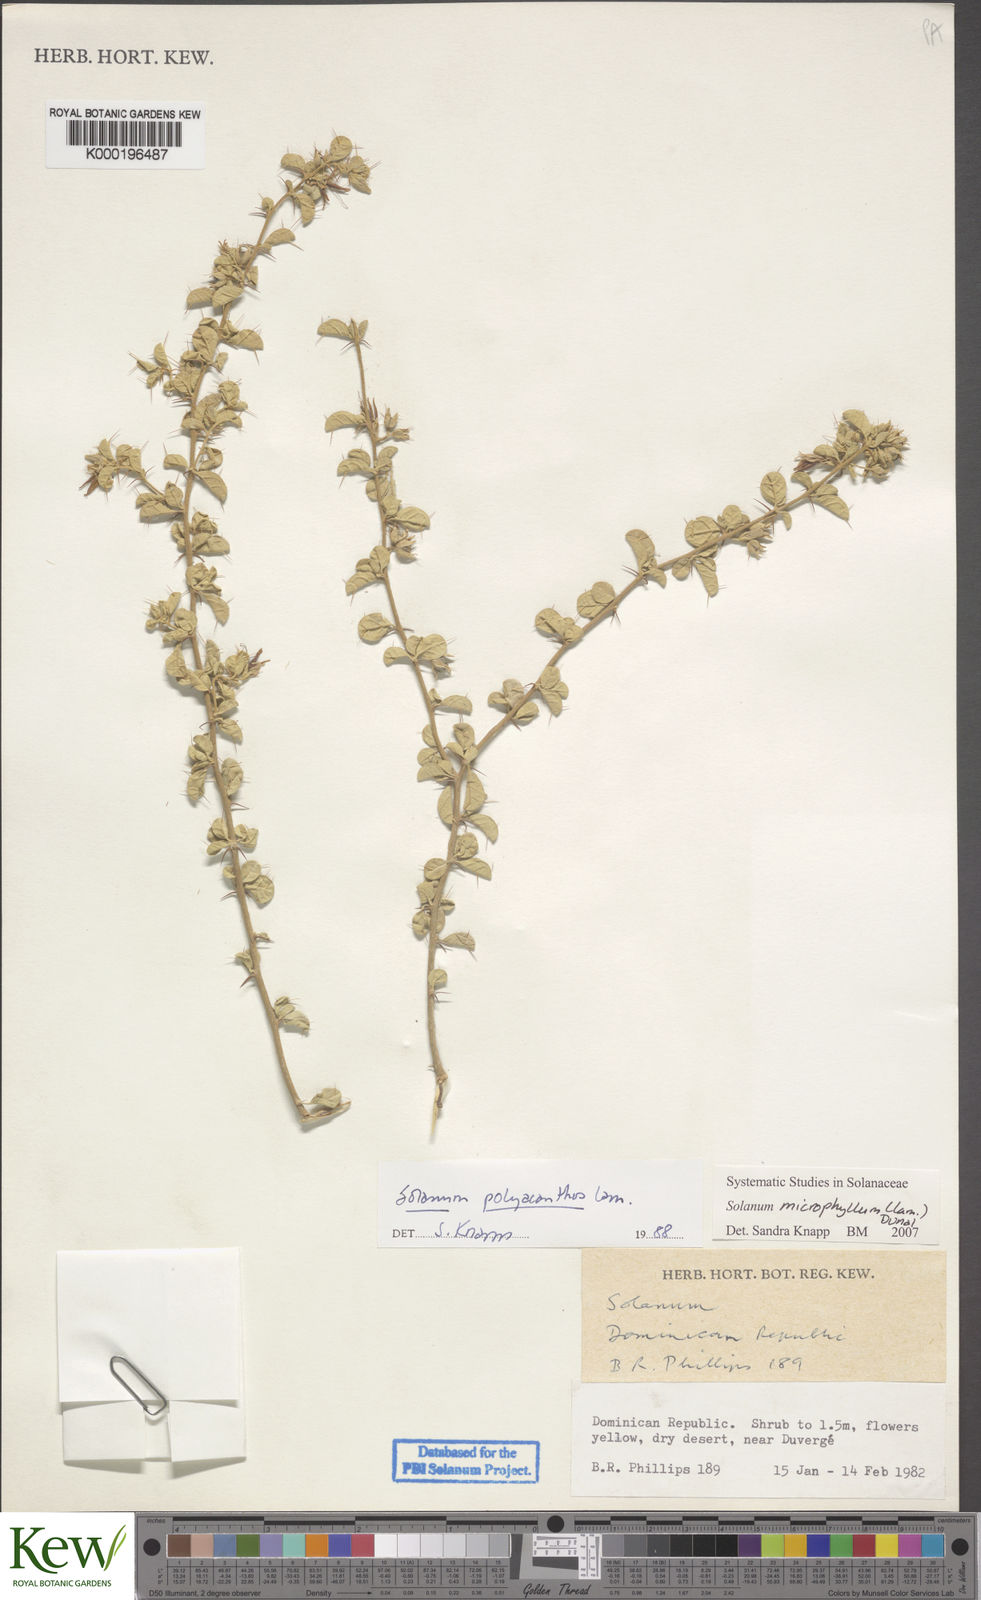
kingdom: Plantae
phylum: Tracheophyta
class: Magnoliopsida
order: Solanales
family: Solanaceae
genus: Solanum
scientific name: Solanum
